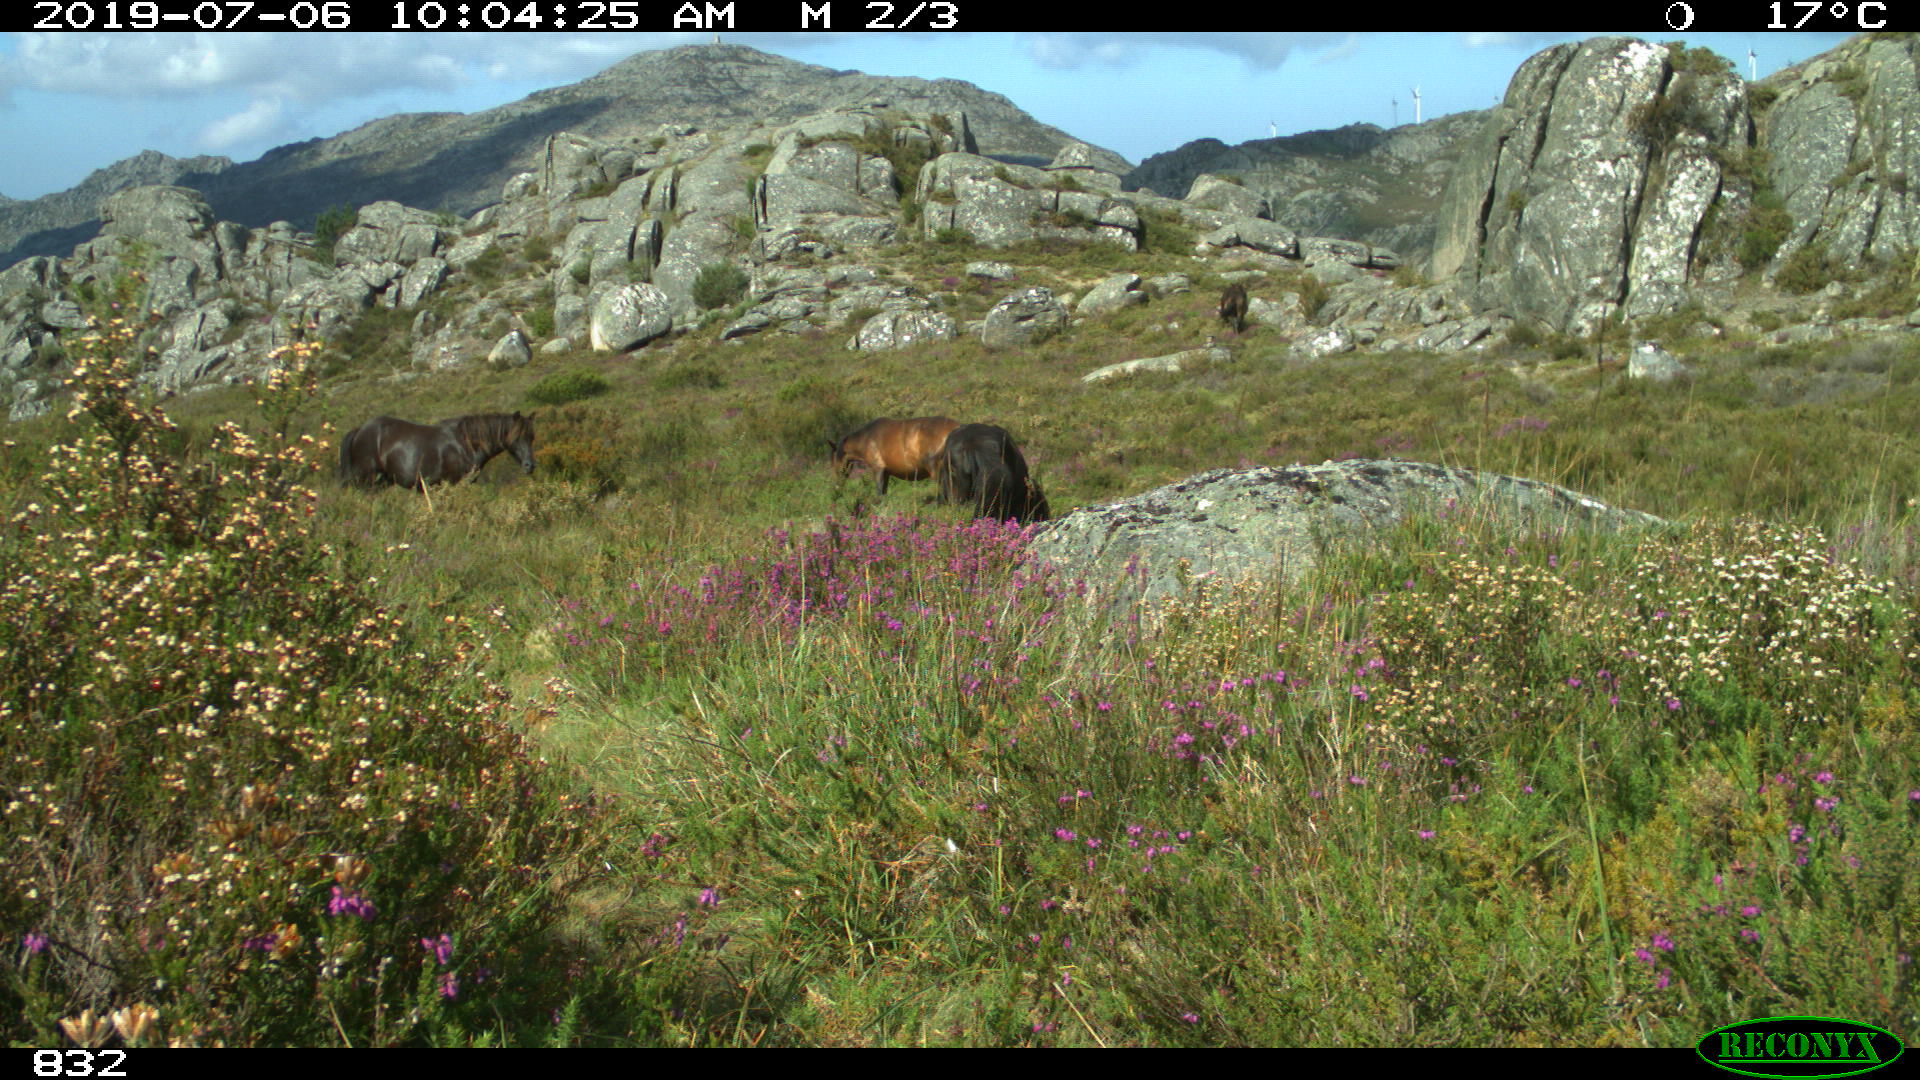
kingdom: Animalia
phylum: Chordata
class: Mammalia
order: Perissodactyla
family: Equidae
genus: Equus
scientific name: Equus caballus
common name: Horse
